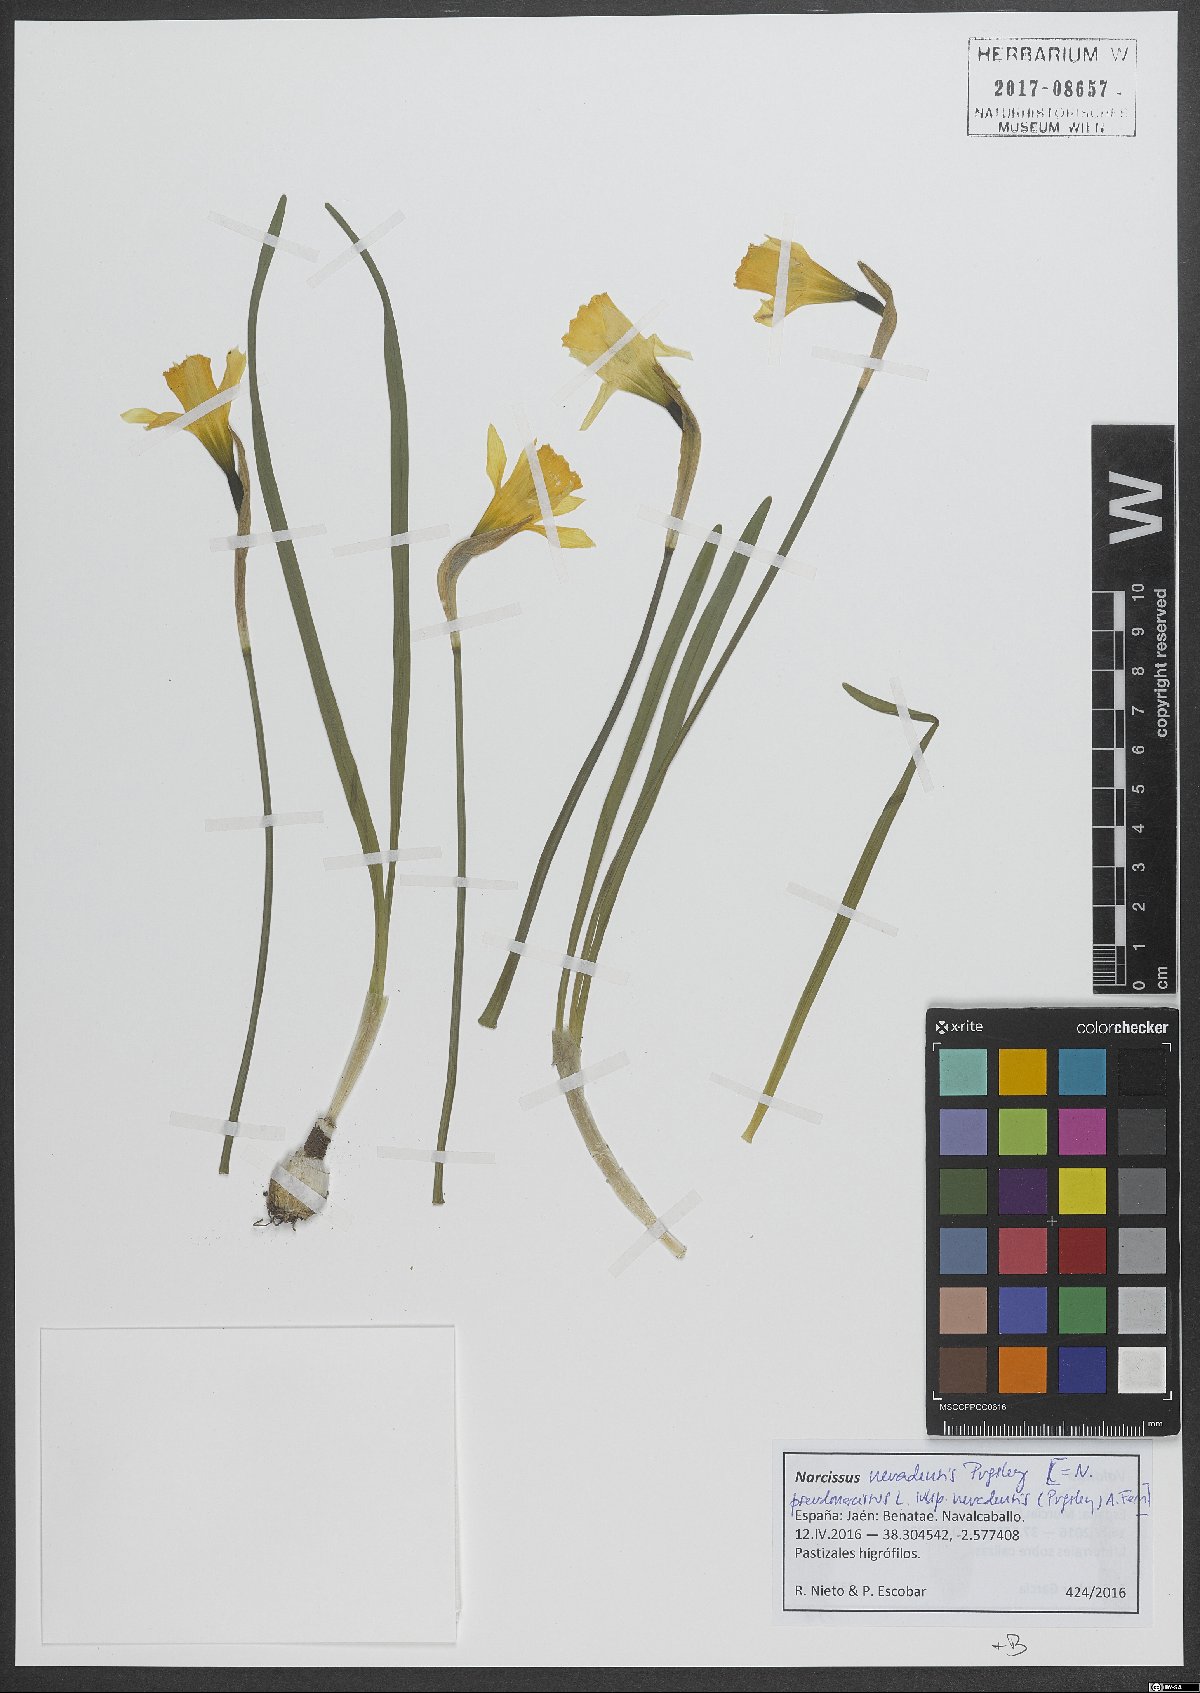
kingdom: Plantae
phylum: Tracheophyta
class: Liliopsida
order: Asparagales
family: Amaryllidaceae
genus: Narcissus
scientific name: Narcissus nevadensis
